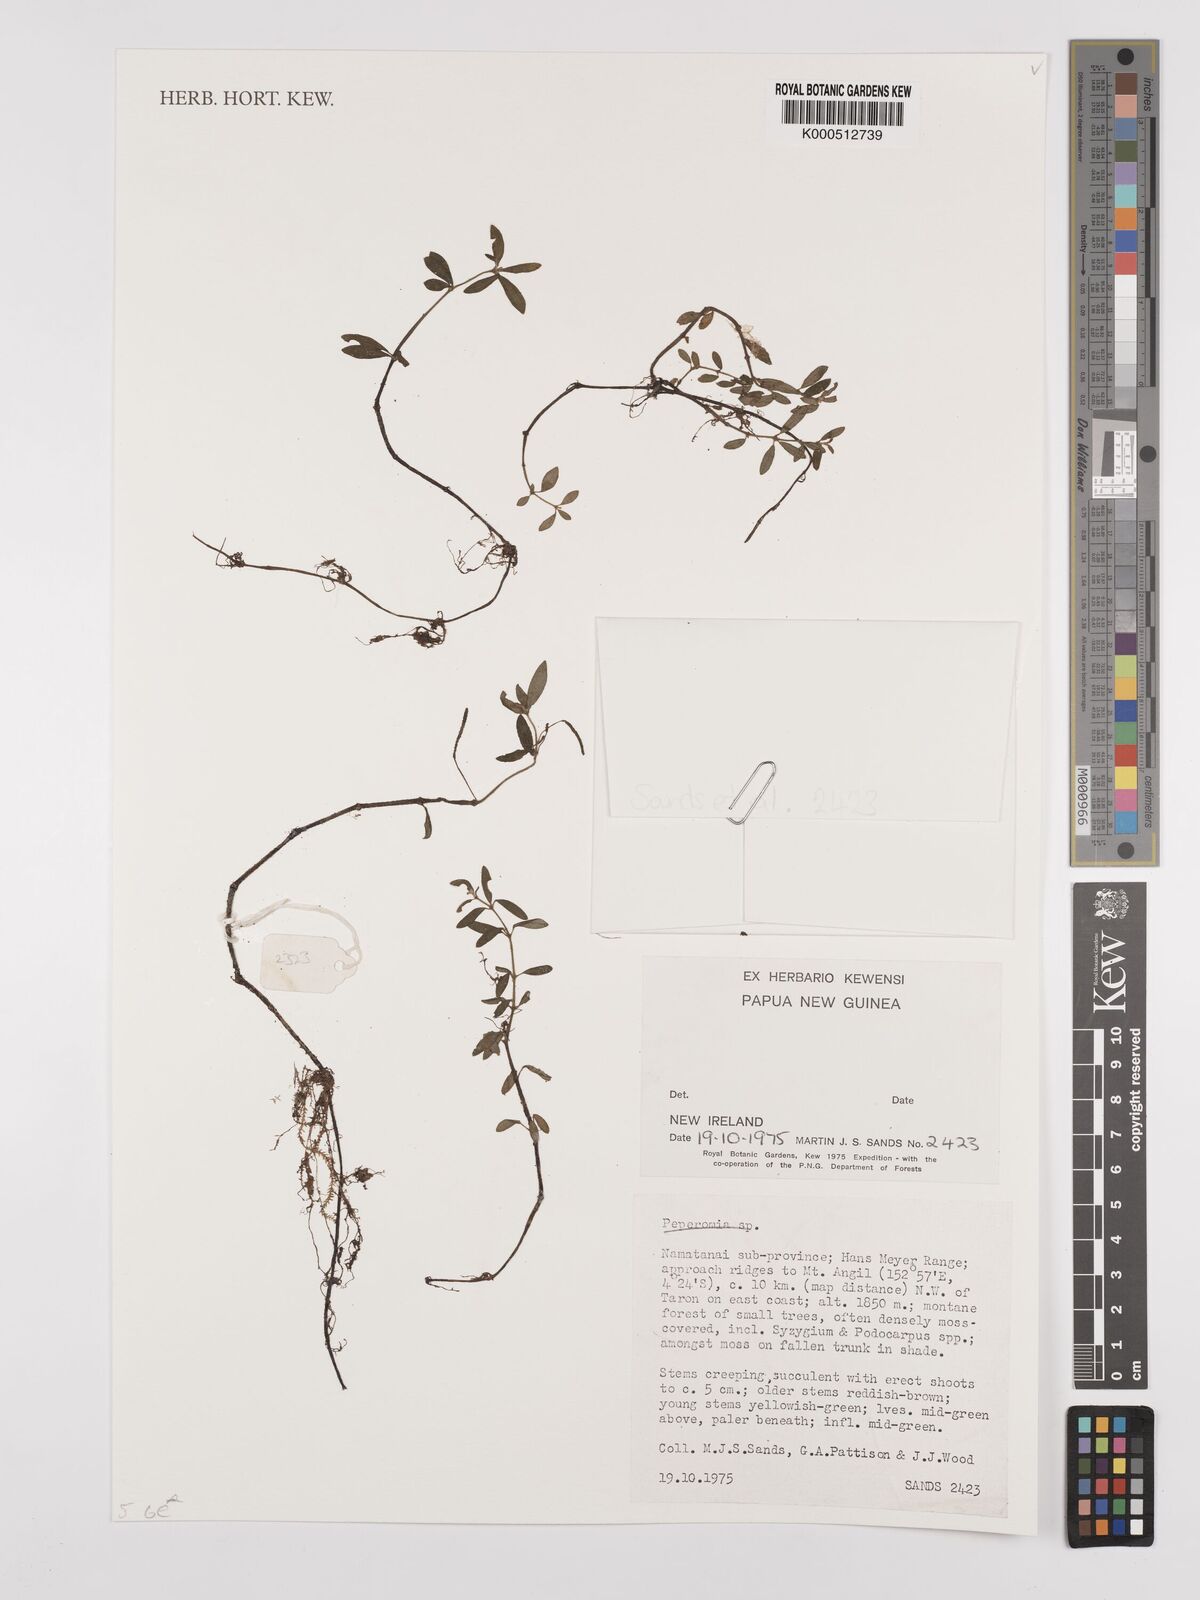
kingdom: Plantae
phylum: Tracheophyta
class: Magnoliopsida
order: Piperales
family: Piperaceae
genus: Peperomia
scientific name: Peperomia
